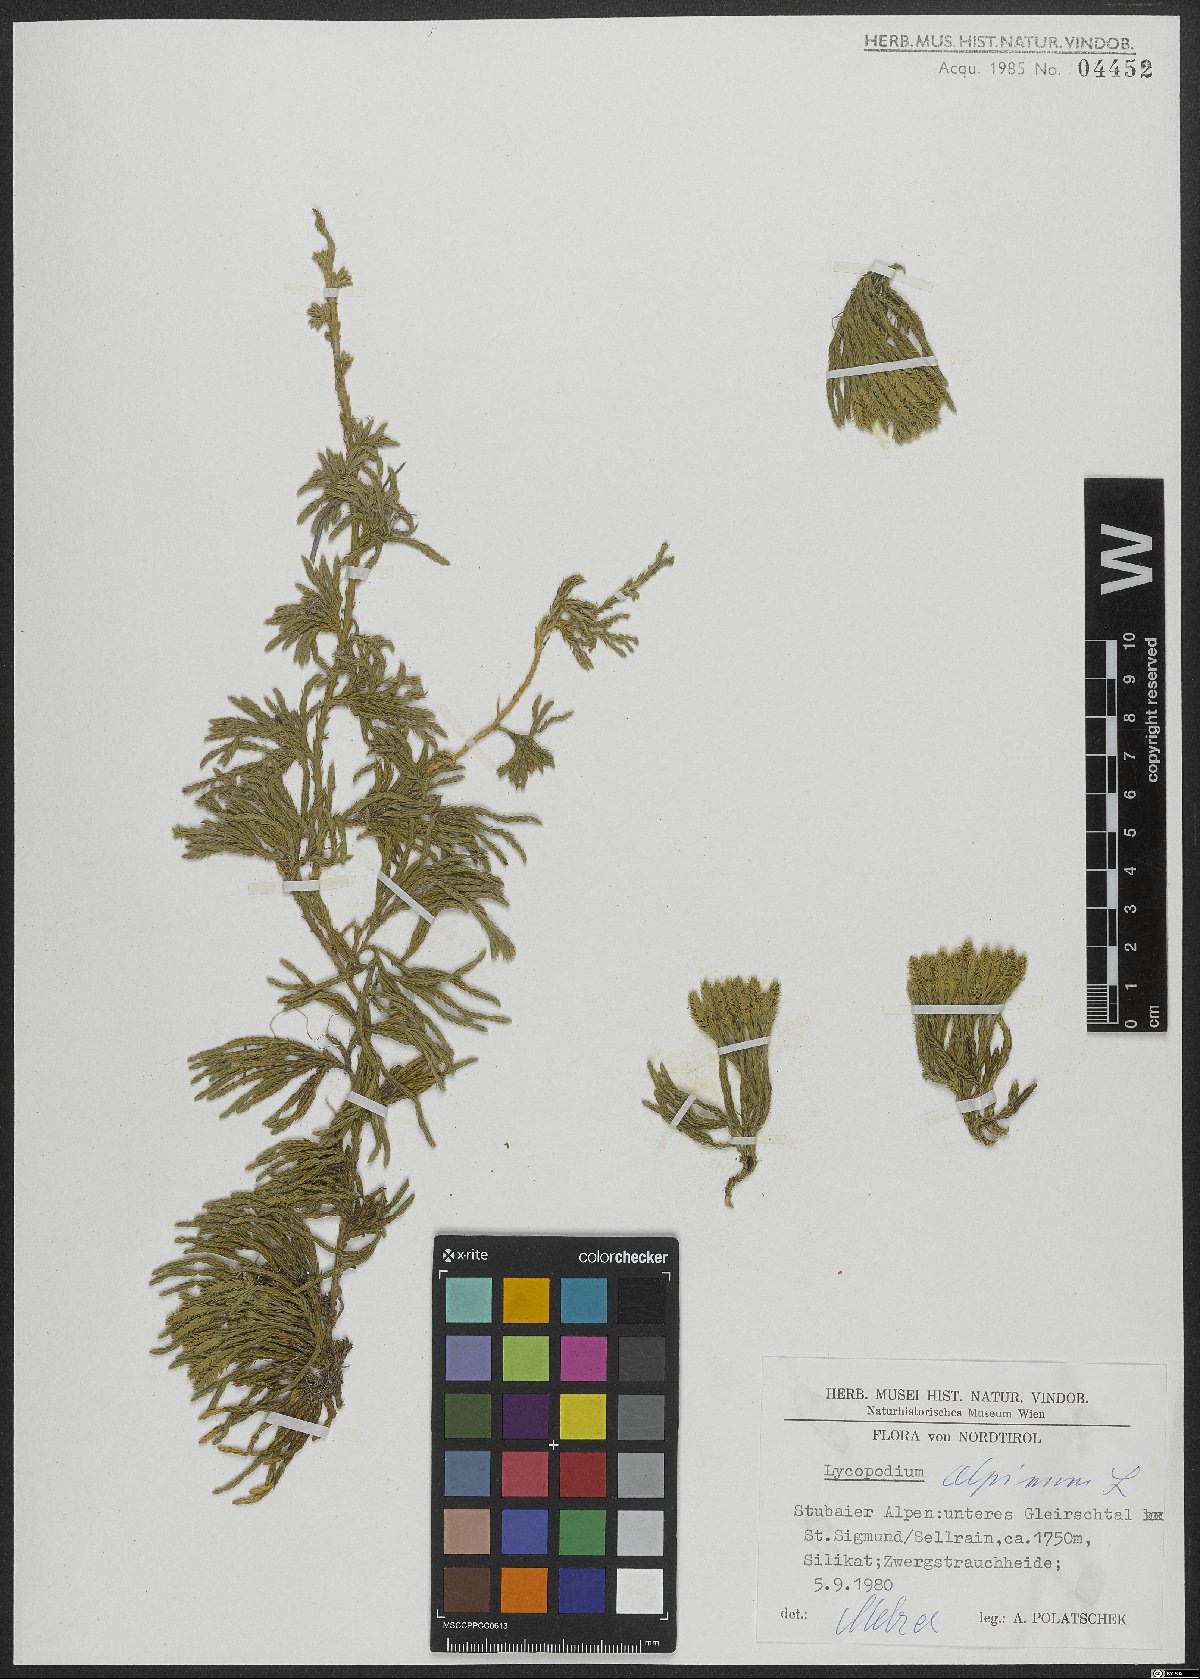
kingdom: Plantae
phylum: Tracheophyta
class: Lycopodiopsida
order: Lycopodiales
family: Lycopodiaceae
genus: Diphasiastrum
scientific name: Diphasiastrum alpinum
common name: Alpine clubmoss
